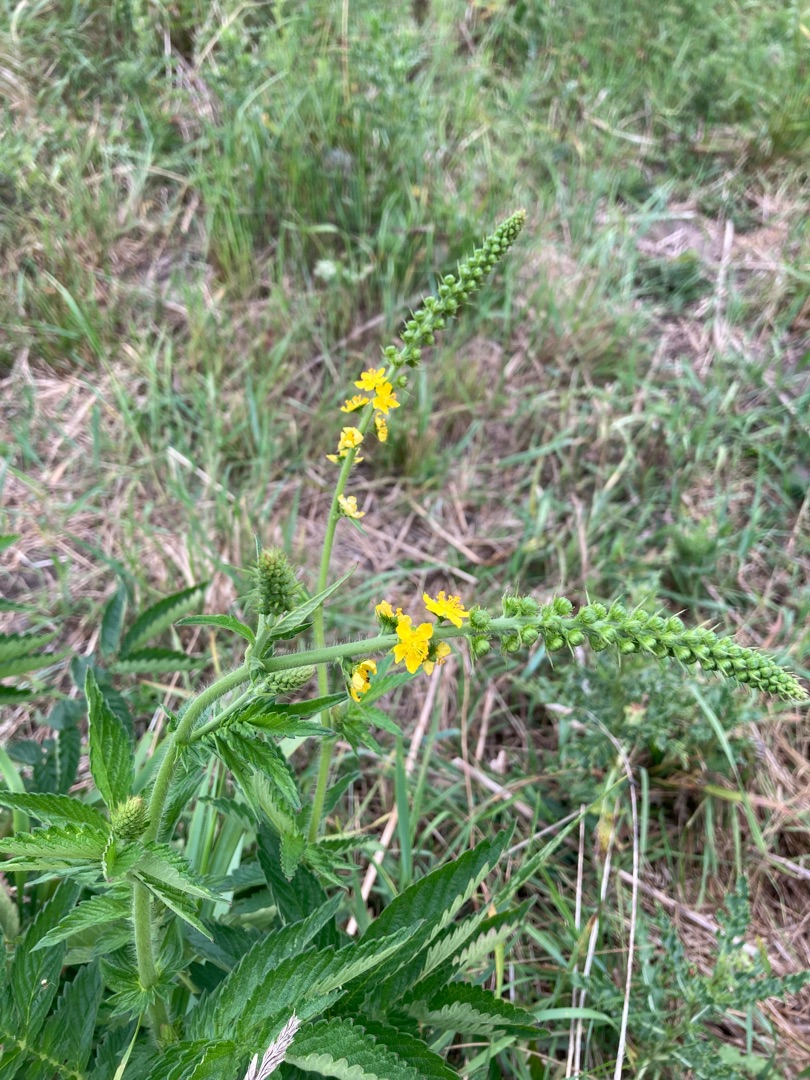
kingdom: Plantae
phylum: Tracheophyta
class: Magnoliopsida
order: Rosales
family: Rosaceae
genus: Agrimonia
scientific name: Agrimonia procera
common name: Vellugtende agermåne
